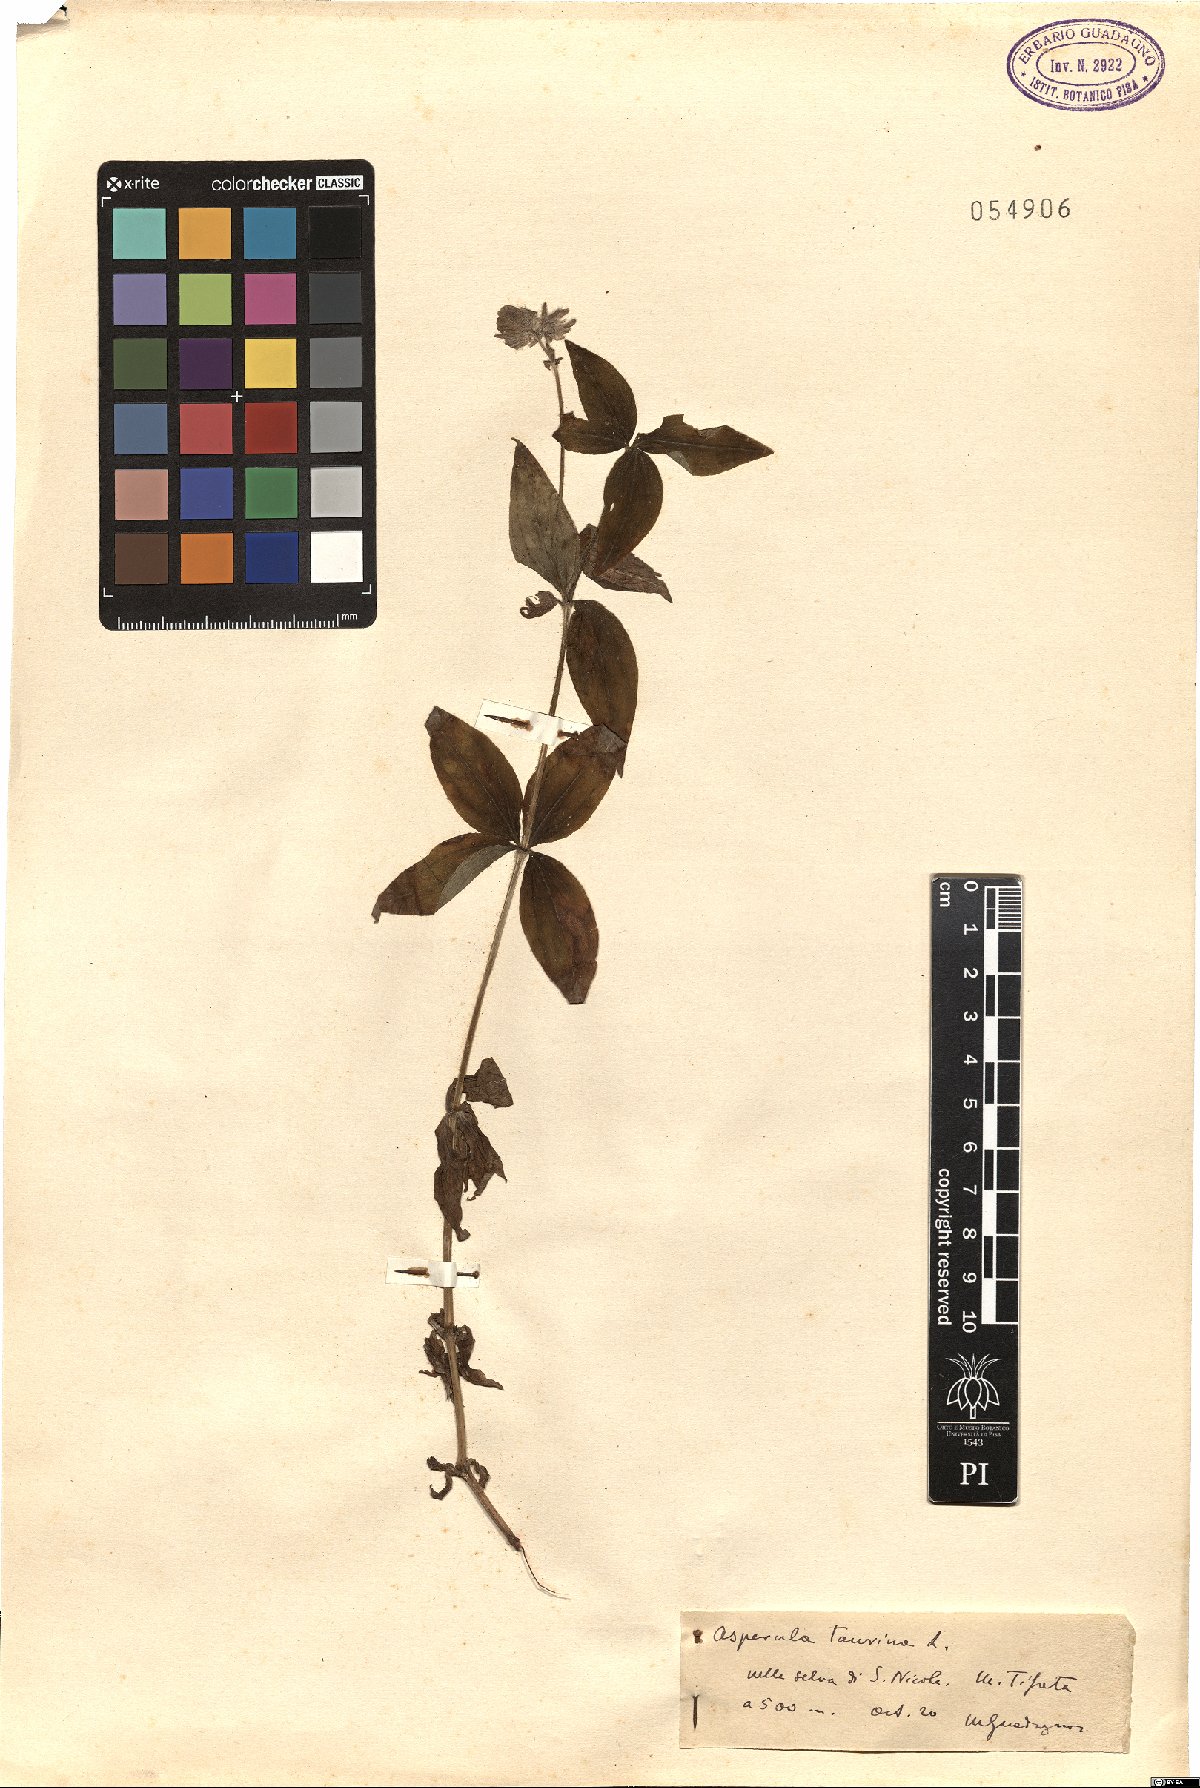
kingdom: Plantae
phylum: Tracheophyta
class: Magnoliopsida
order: Gentianales
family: Rubiaceae
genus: Asperula
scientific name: Asperula taurina
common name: Pink woodruff
